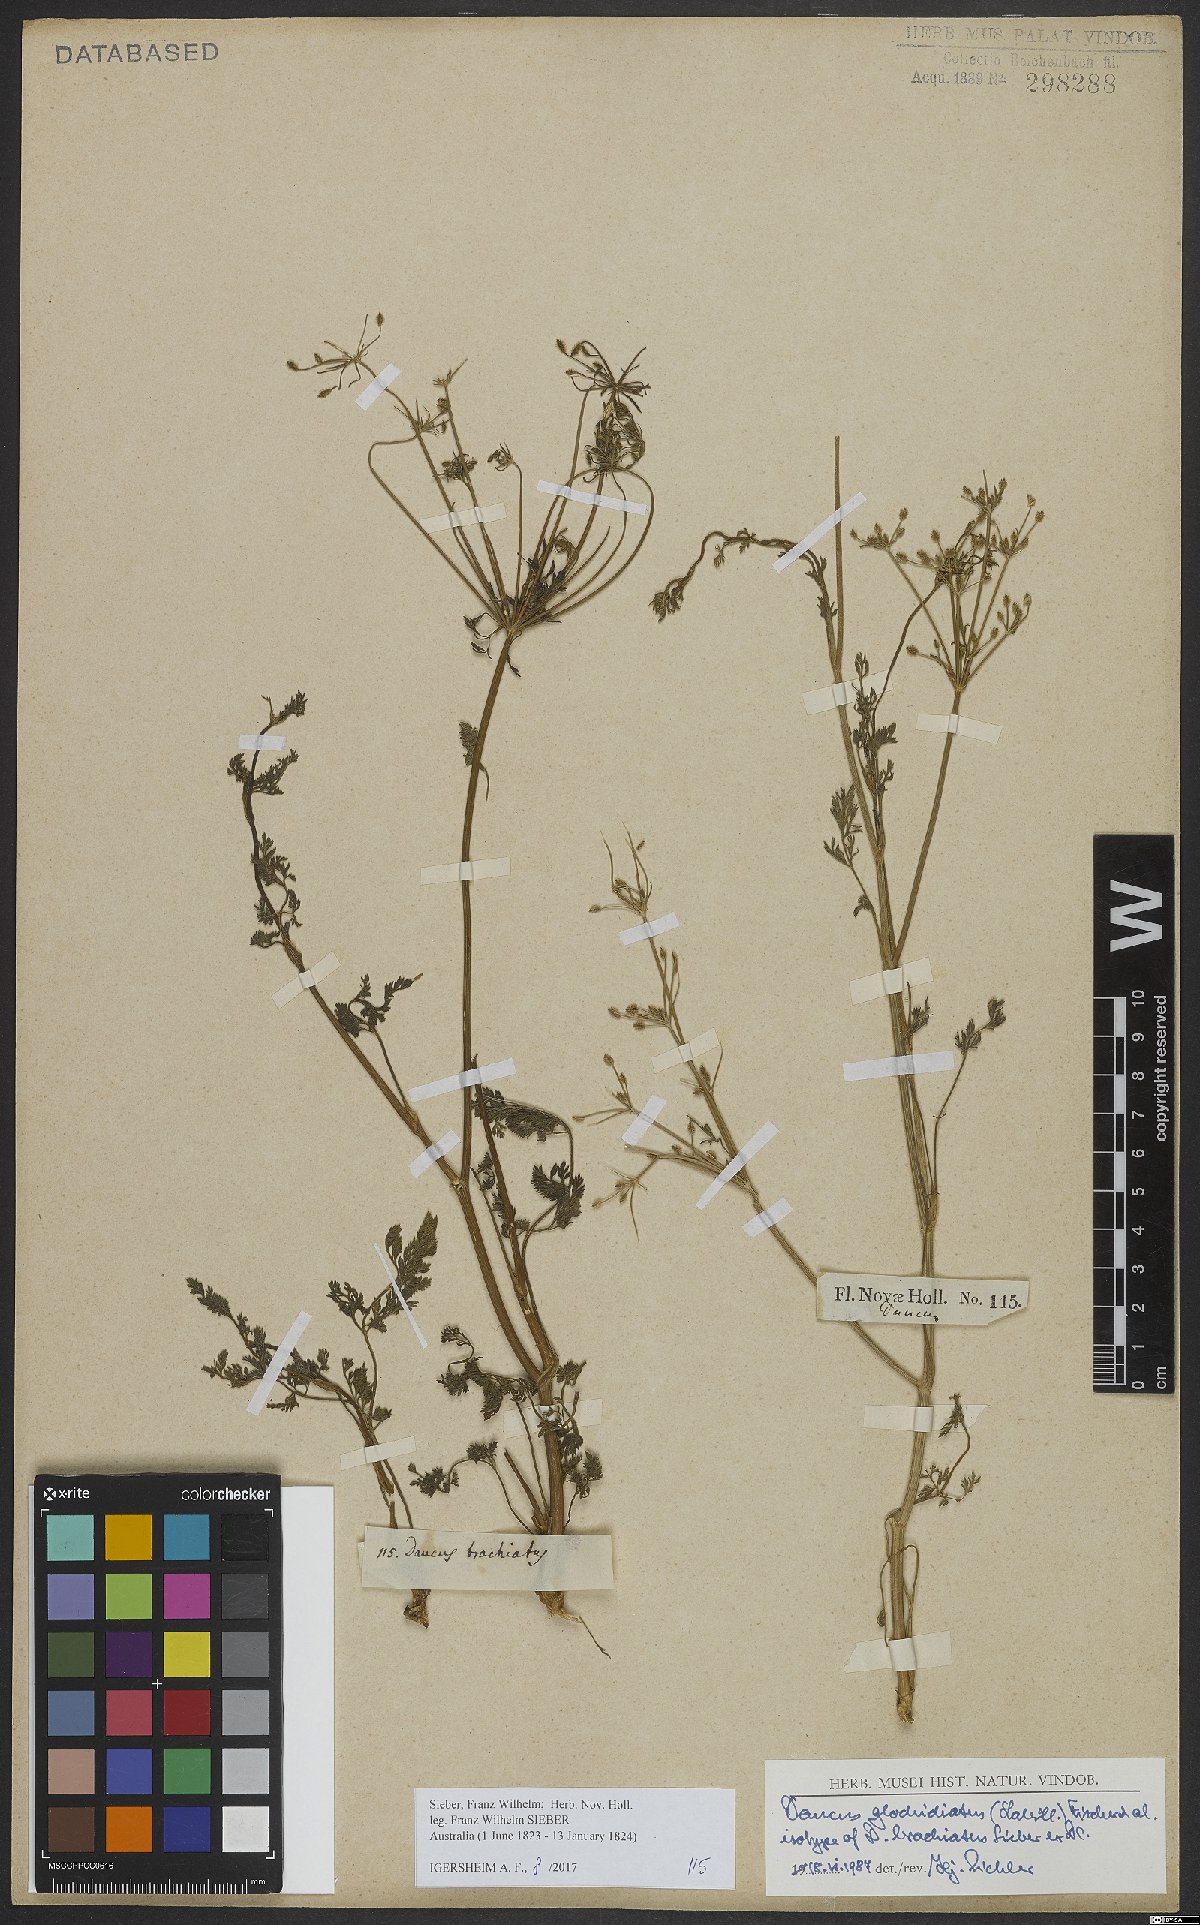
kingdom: Plantae
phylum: Tracheophyta
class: Magnoliopsida
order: Apiales
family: Apiaceae
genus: Daucus
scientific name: Daucus glochidiatus
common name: Australian carrot
